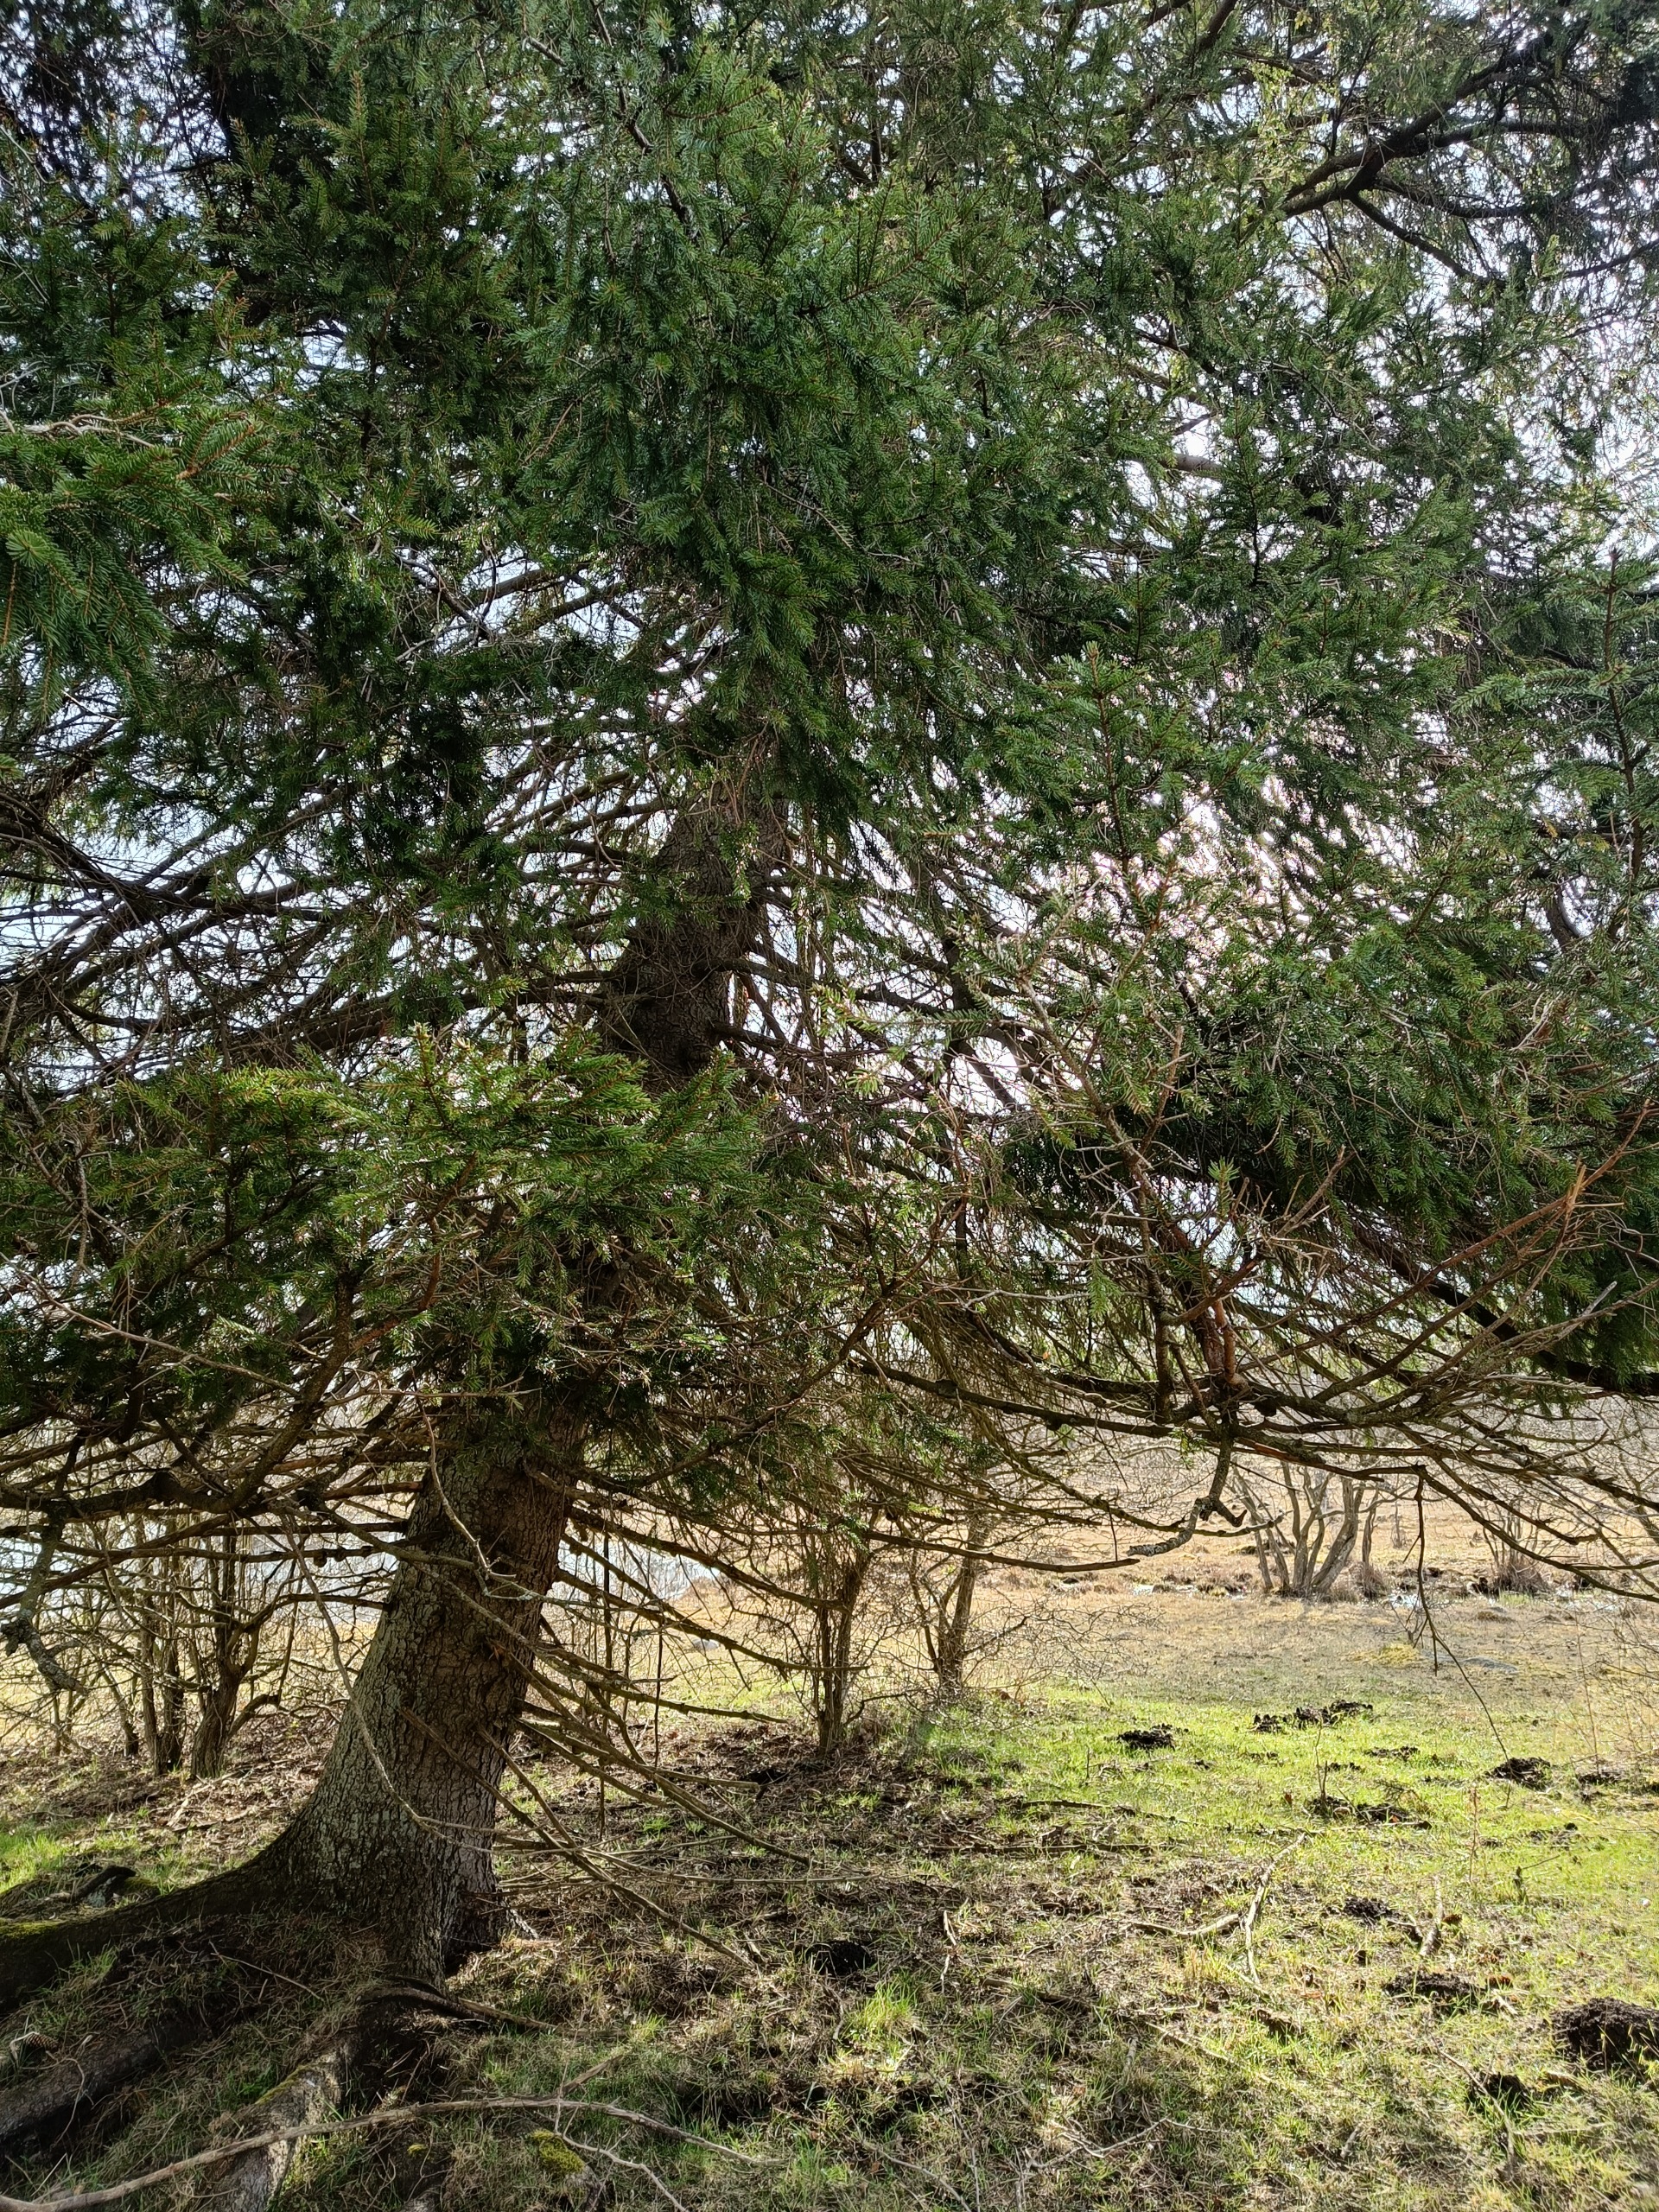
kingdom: Plantae
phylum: Tracheophyta
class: Pinopsida
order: Pinales
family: Pinaceae
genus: Picea
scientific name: Picea abies
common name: Rød-gran
